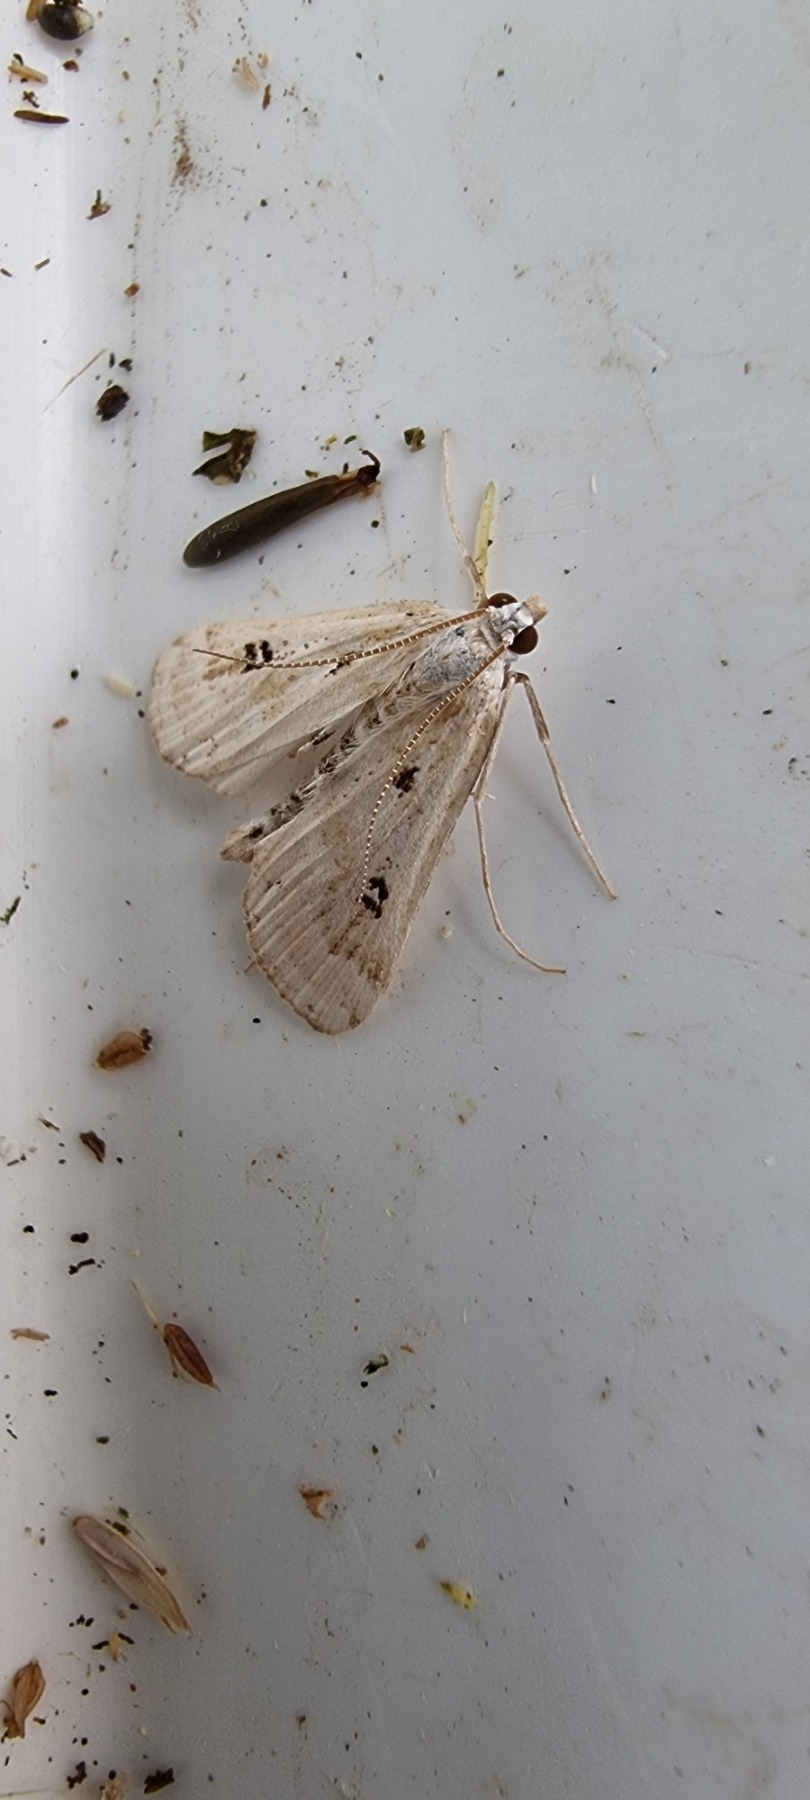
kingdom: Animalia
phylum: Arthropoda
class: Insecta
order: Lepidoptera
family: Crambidae
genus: Parapoynx
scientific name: Parapoynx stratiotata
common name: Vandpesthalvmøl
